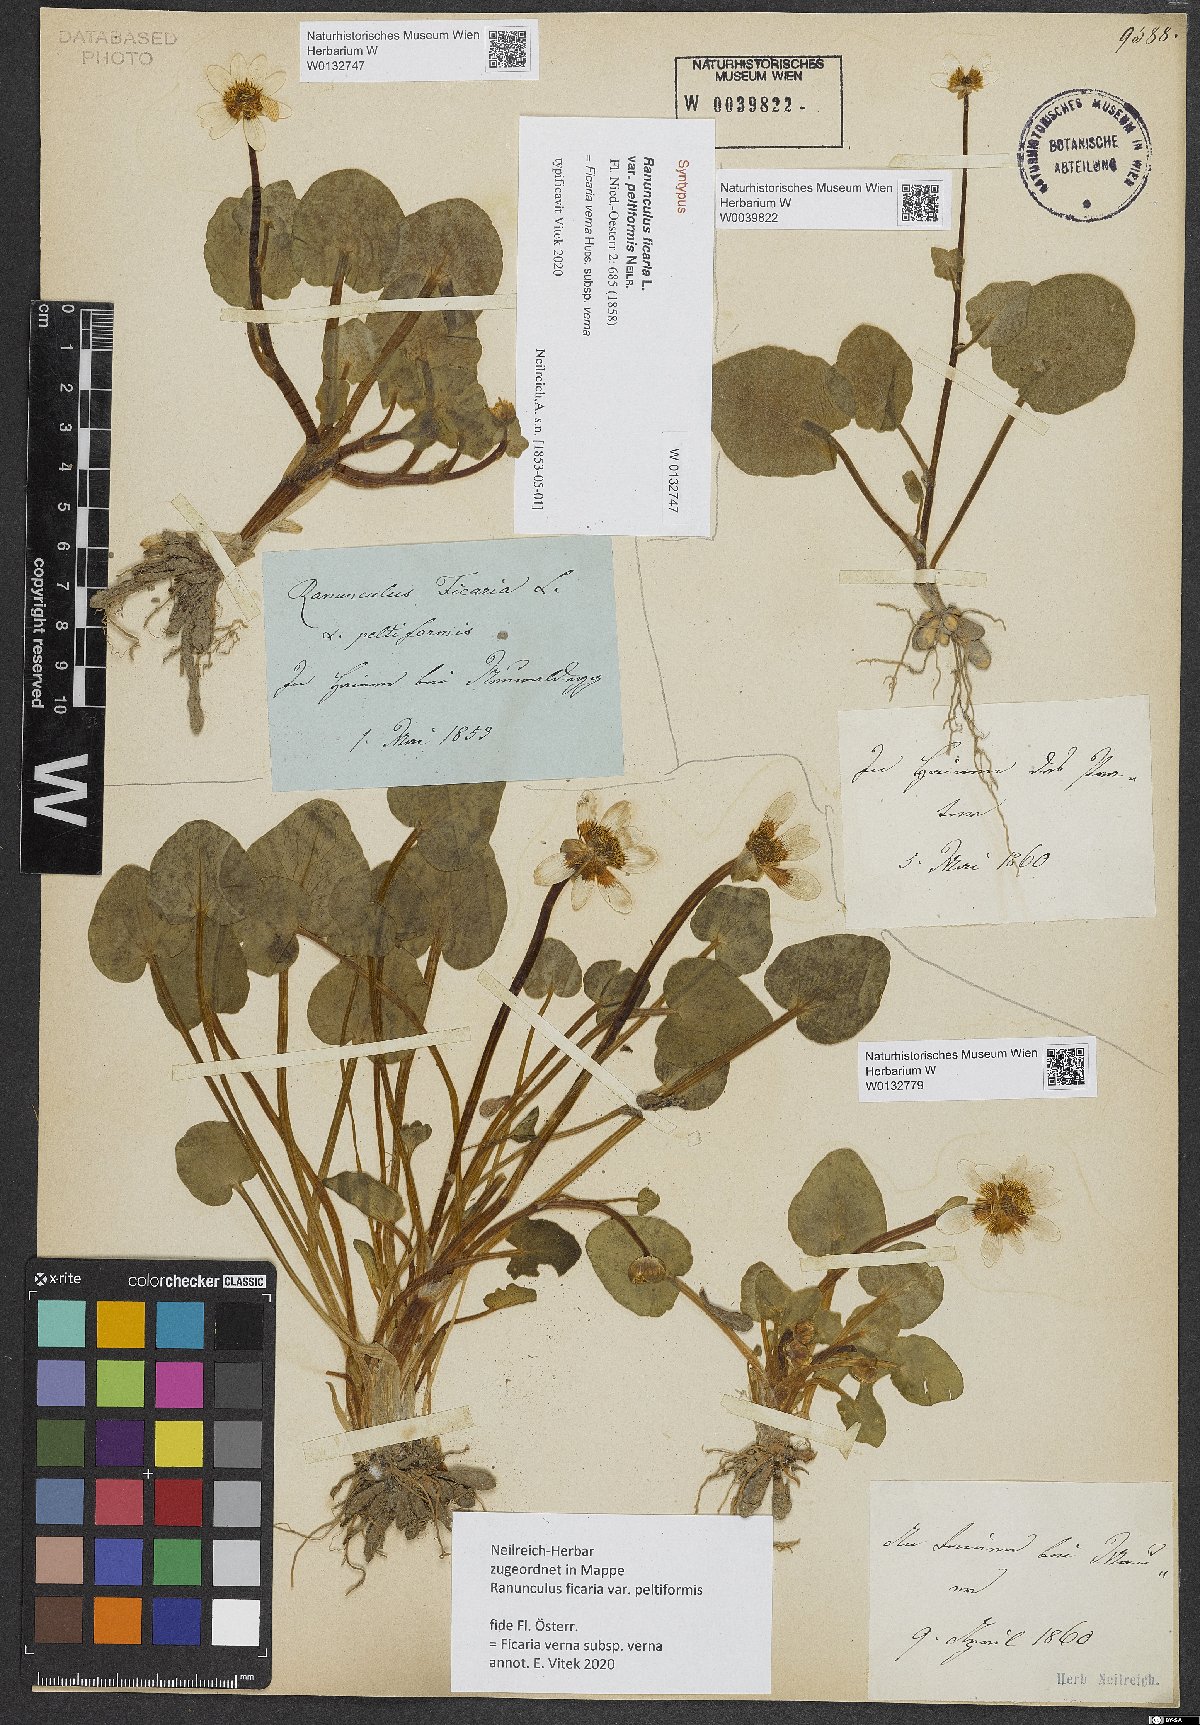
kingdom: Plantae
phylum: Tracheophyta
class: Magnoliopsida
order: Ranunculales
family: Ranunculaceae
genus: Ficaria
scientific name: Ficaria verna
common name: Lesser celandine
